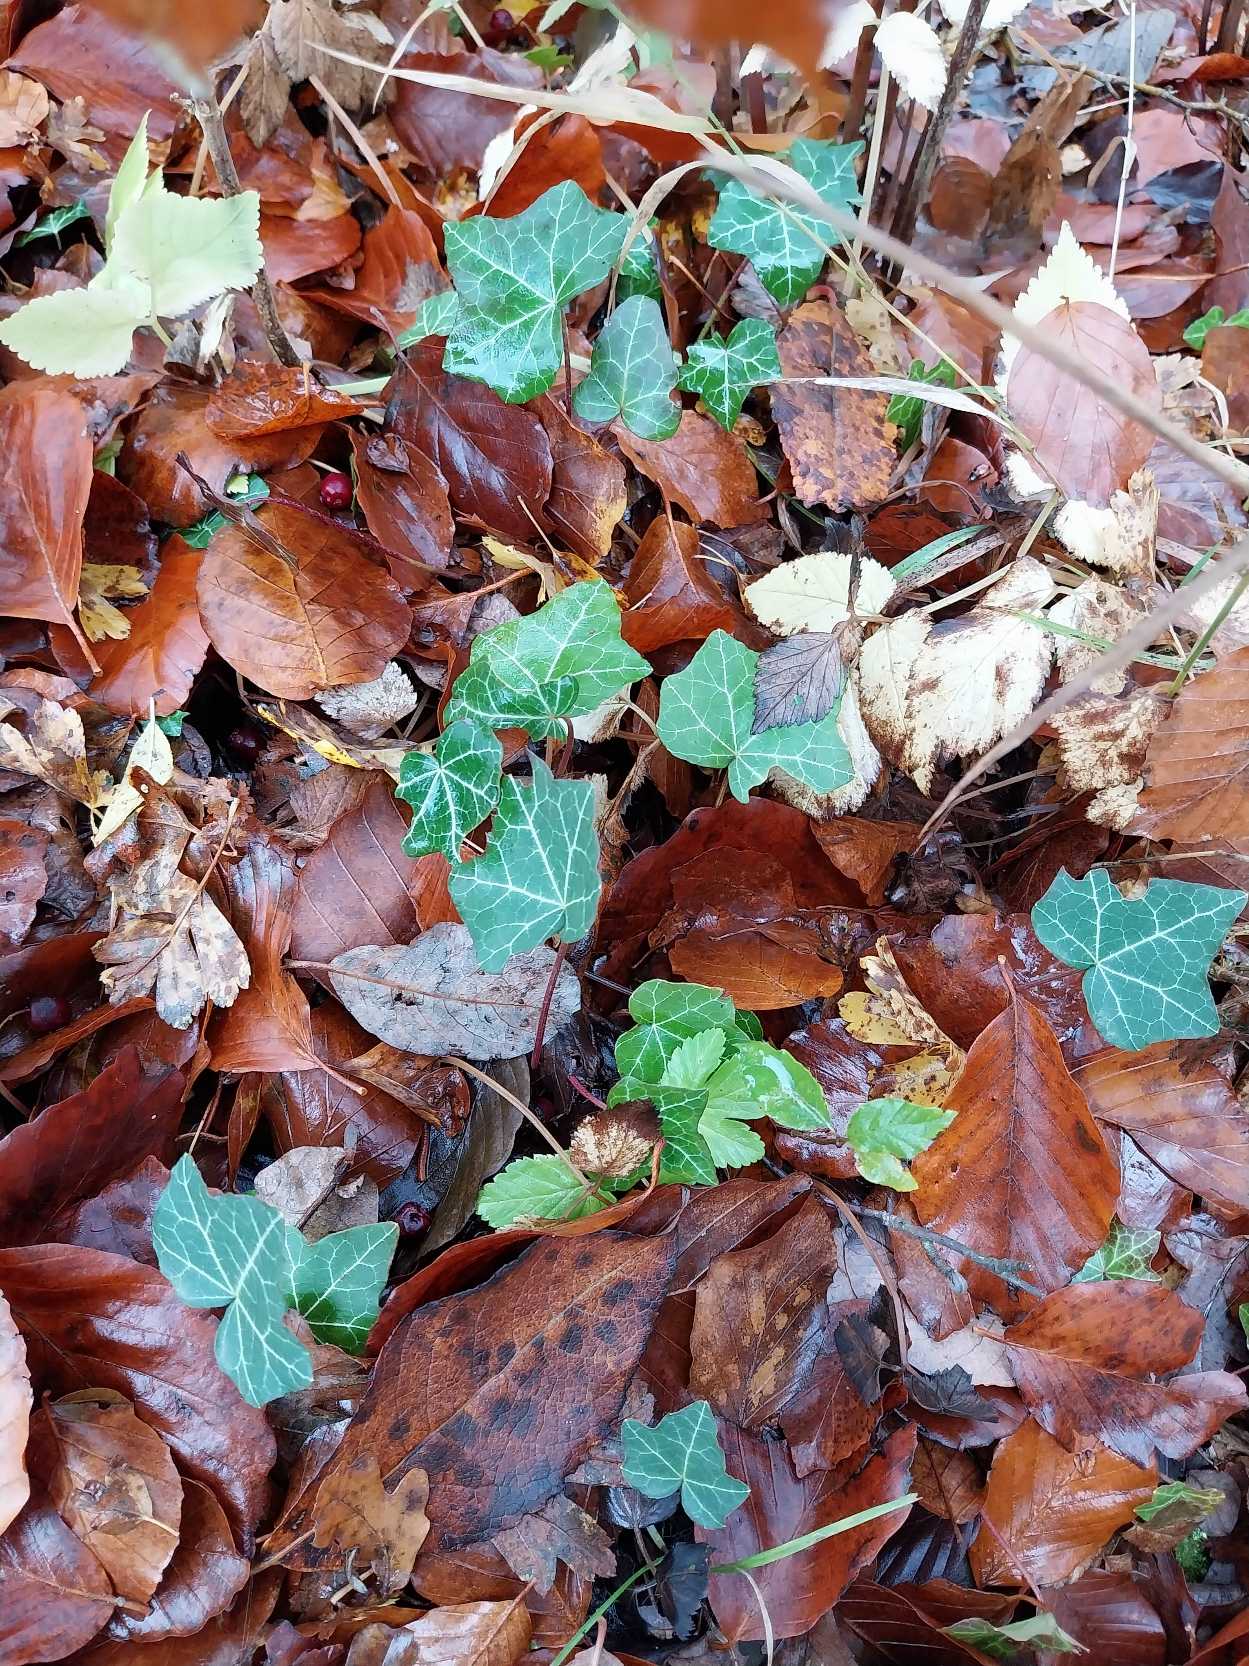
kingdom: Plantae
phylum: Tracheophyta
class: Magnoliopsida
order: Apiales
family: Araliaceae
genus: Hedera
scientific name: Hedera helix
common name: Vedbend
